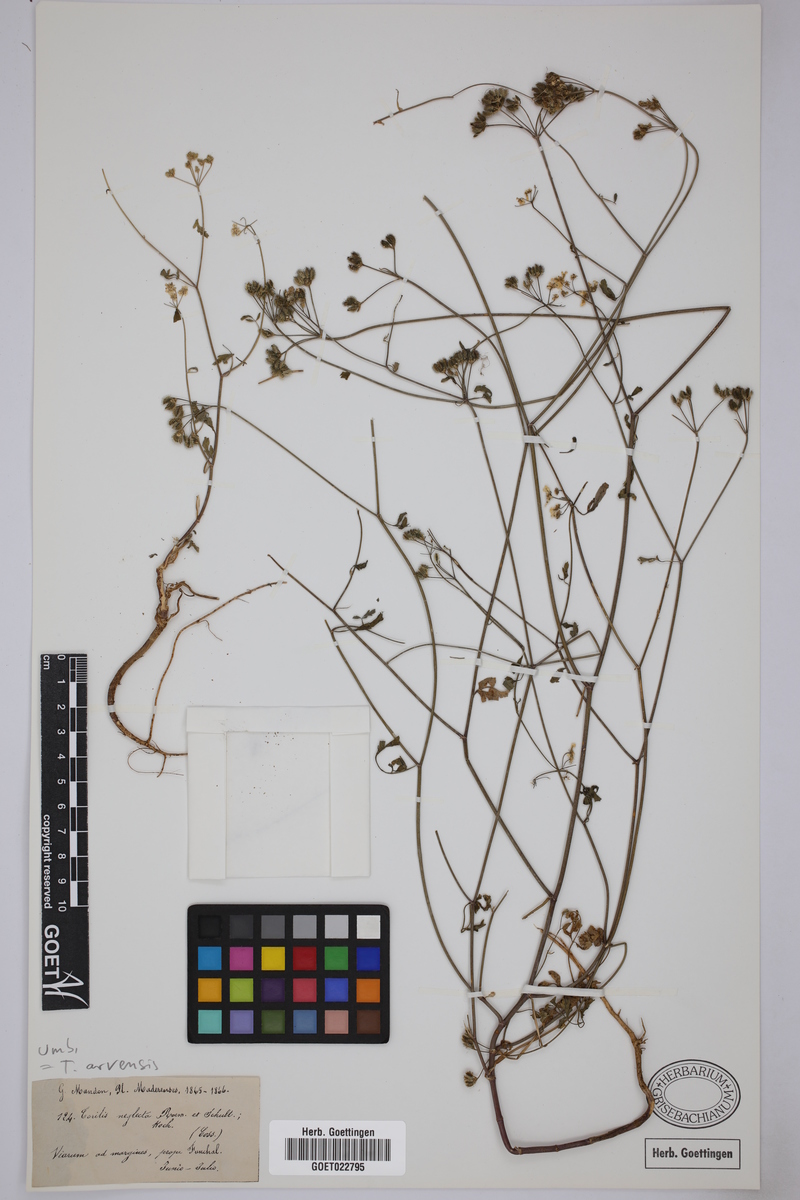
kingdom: Plantae
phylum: Tracheophyta
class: Magnoliopsida
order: Apiales
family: Apiaceae
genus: Torilis
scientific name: Torilis arvensis
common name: Spreading hedge-parsley
